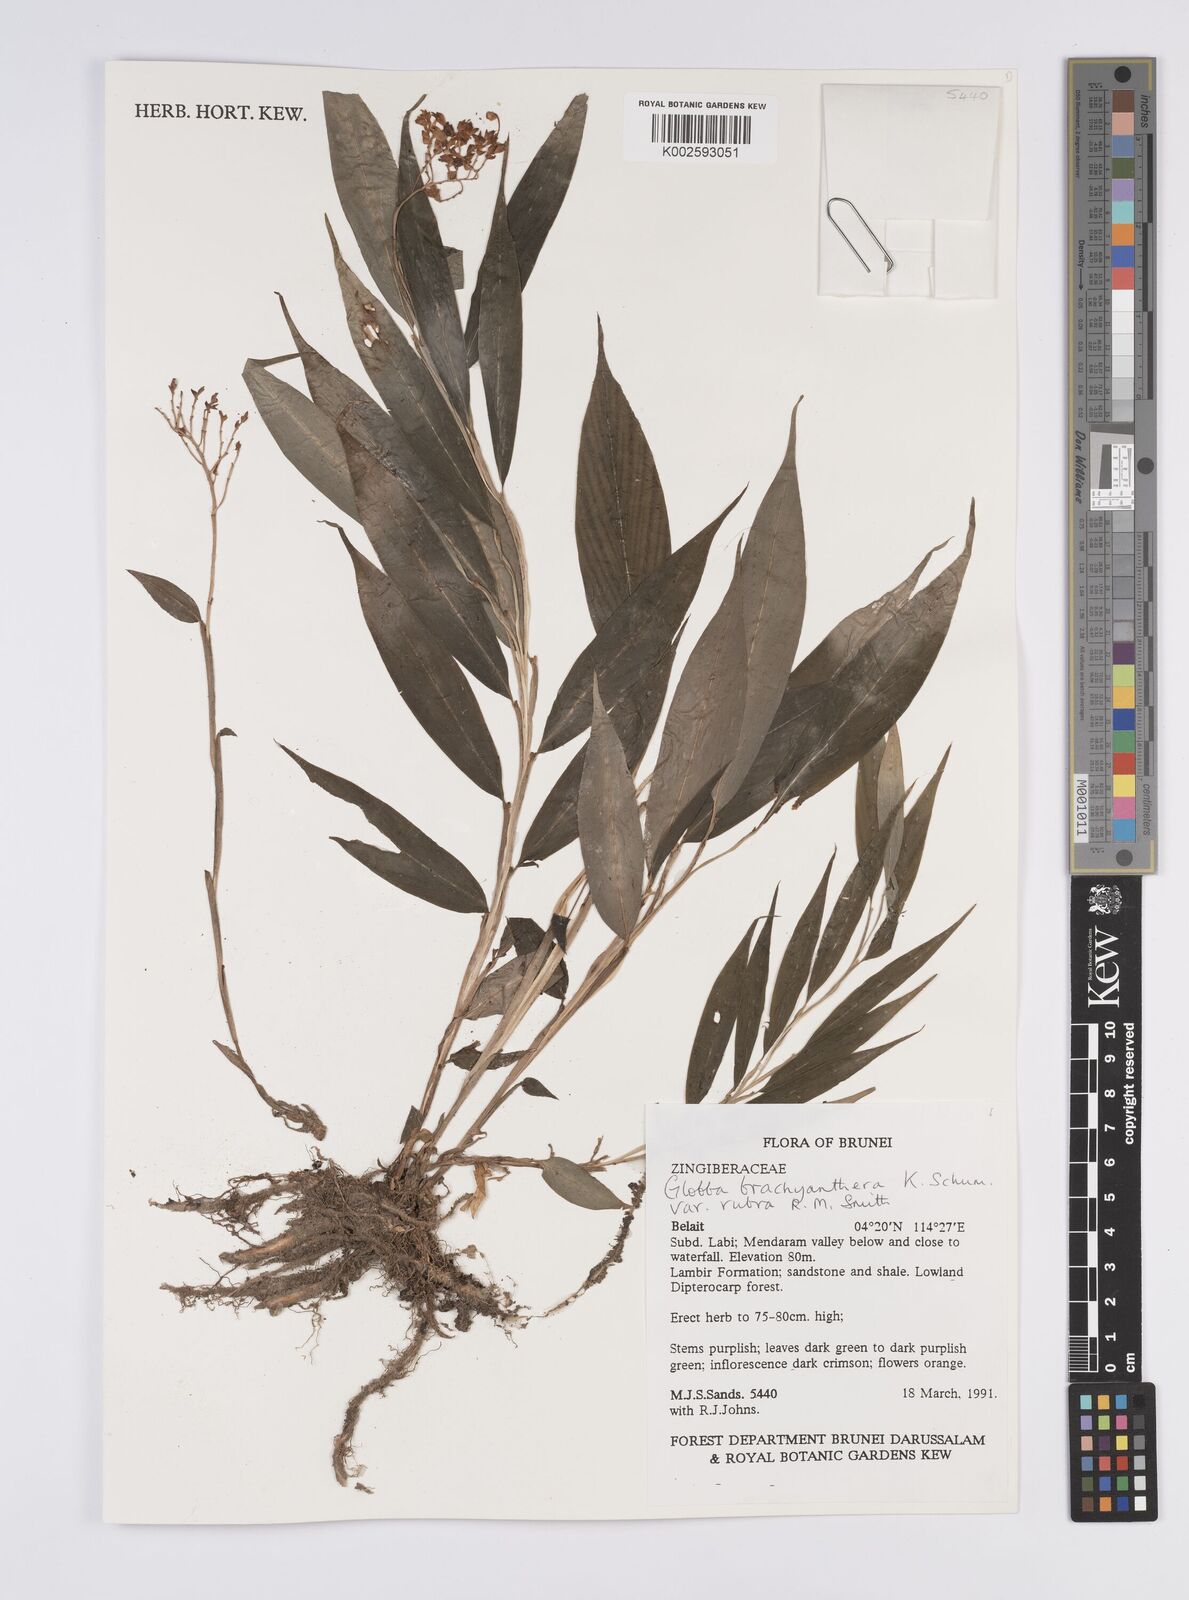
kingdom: Plantae
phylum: Tracheophyta
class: Liliopsida
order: Zingiberales
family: Zingiberaceae
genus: Globba
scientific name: Globba brachyanthera
